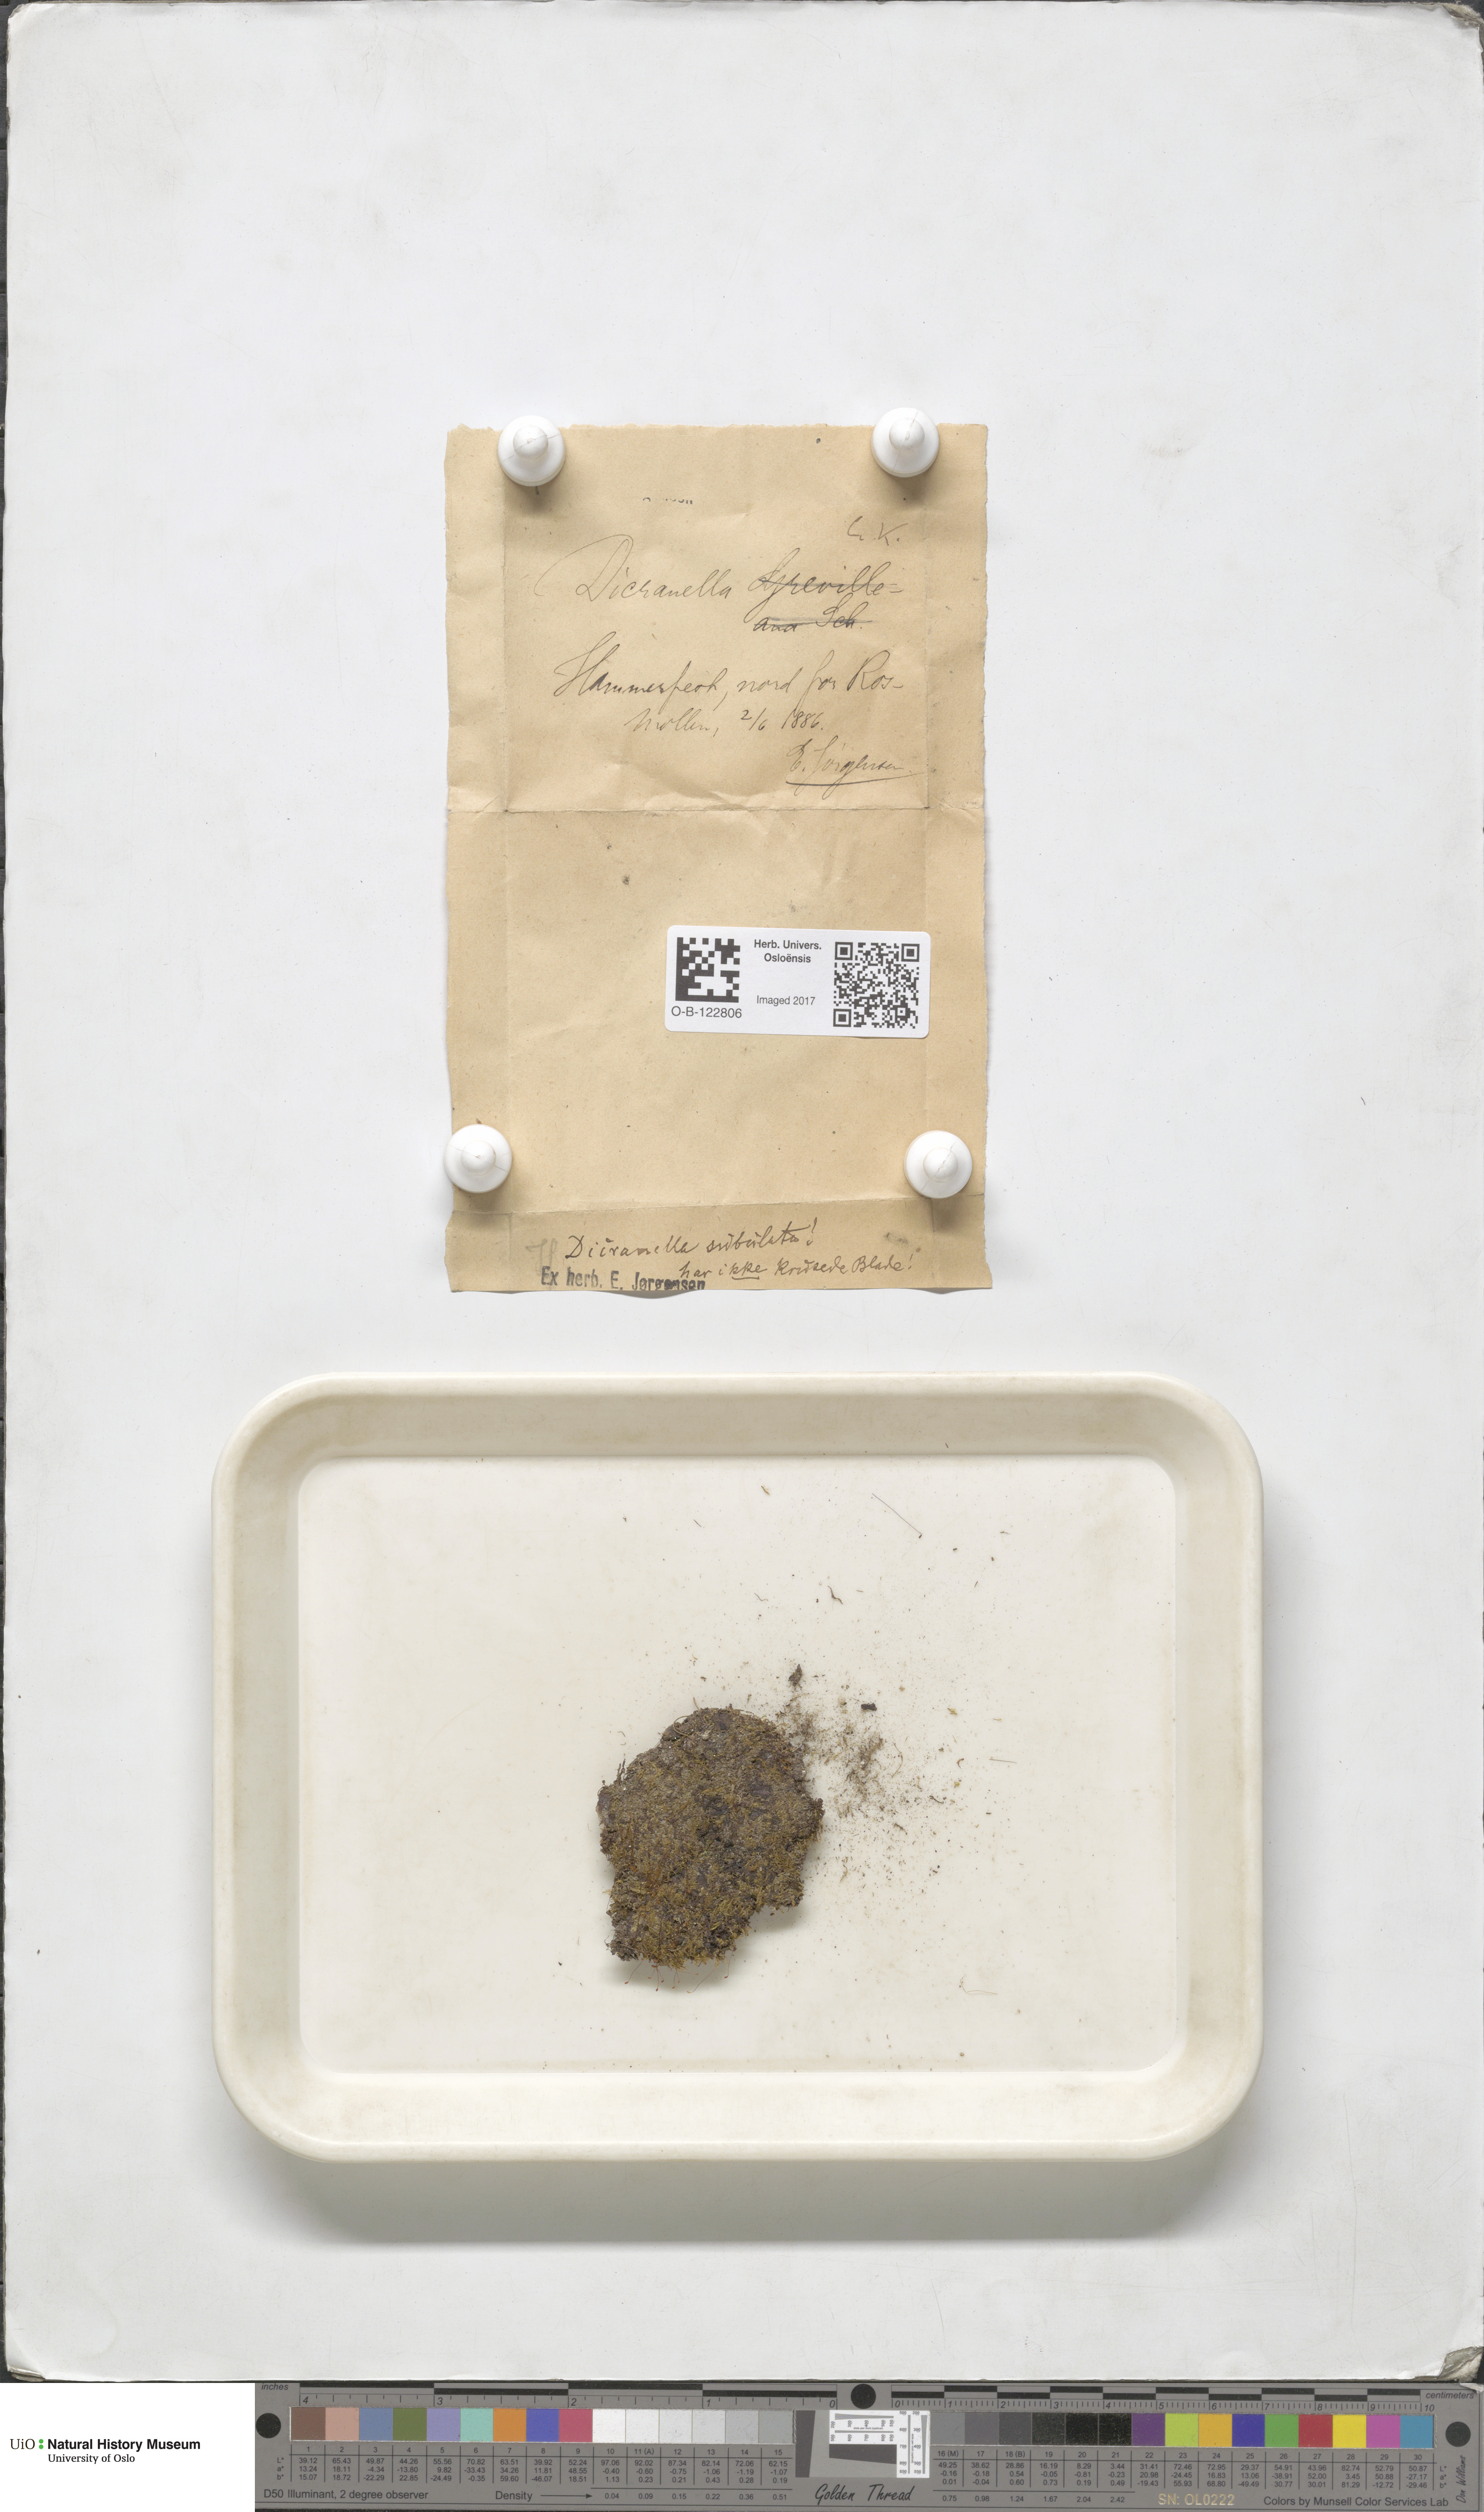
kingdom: Plantae
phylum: Bryophyta
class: Bryopsida
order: Dicranales
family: Dicranellaceae
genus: Dicranella
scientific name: Dicranella subulata
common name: Awl-leaved forklet moss
